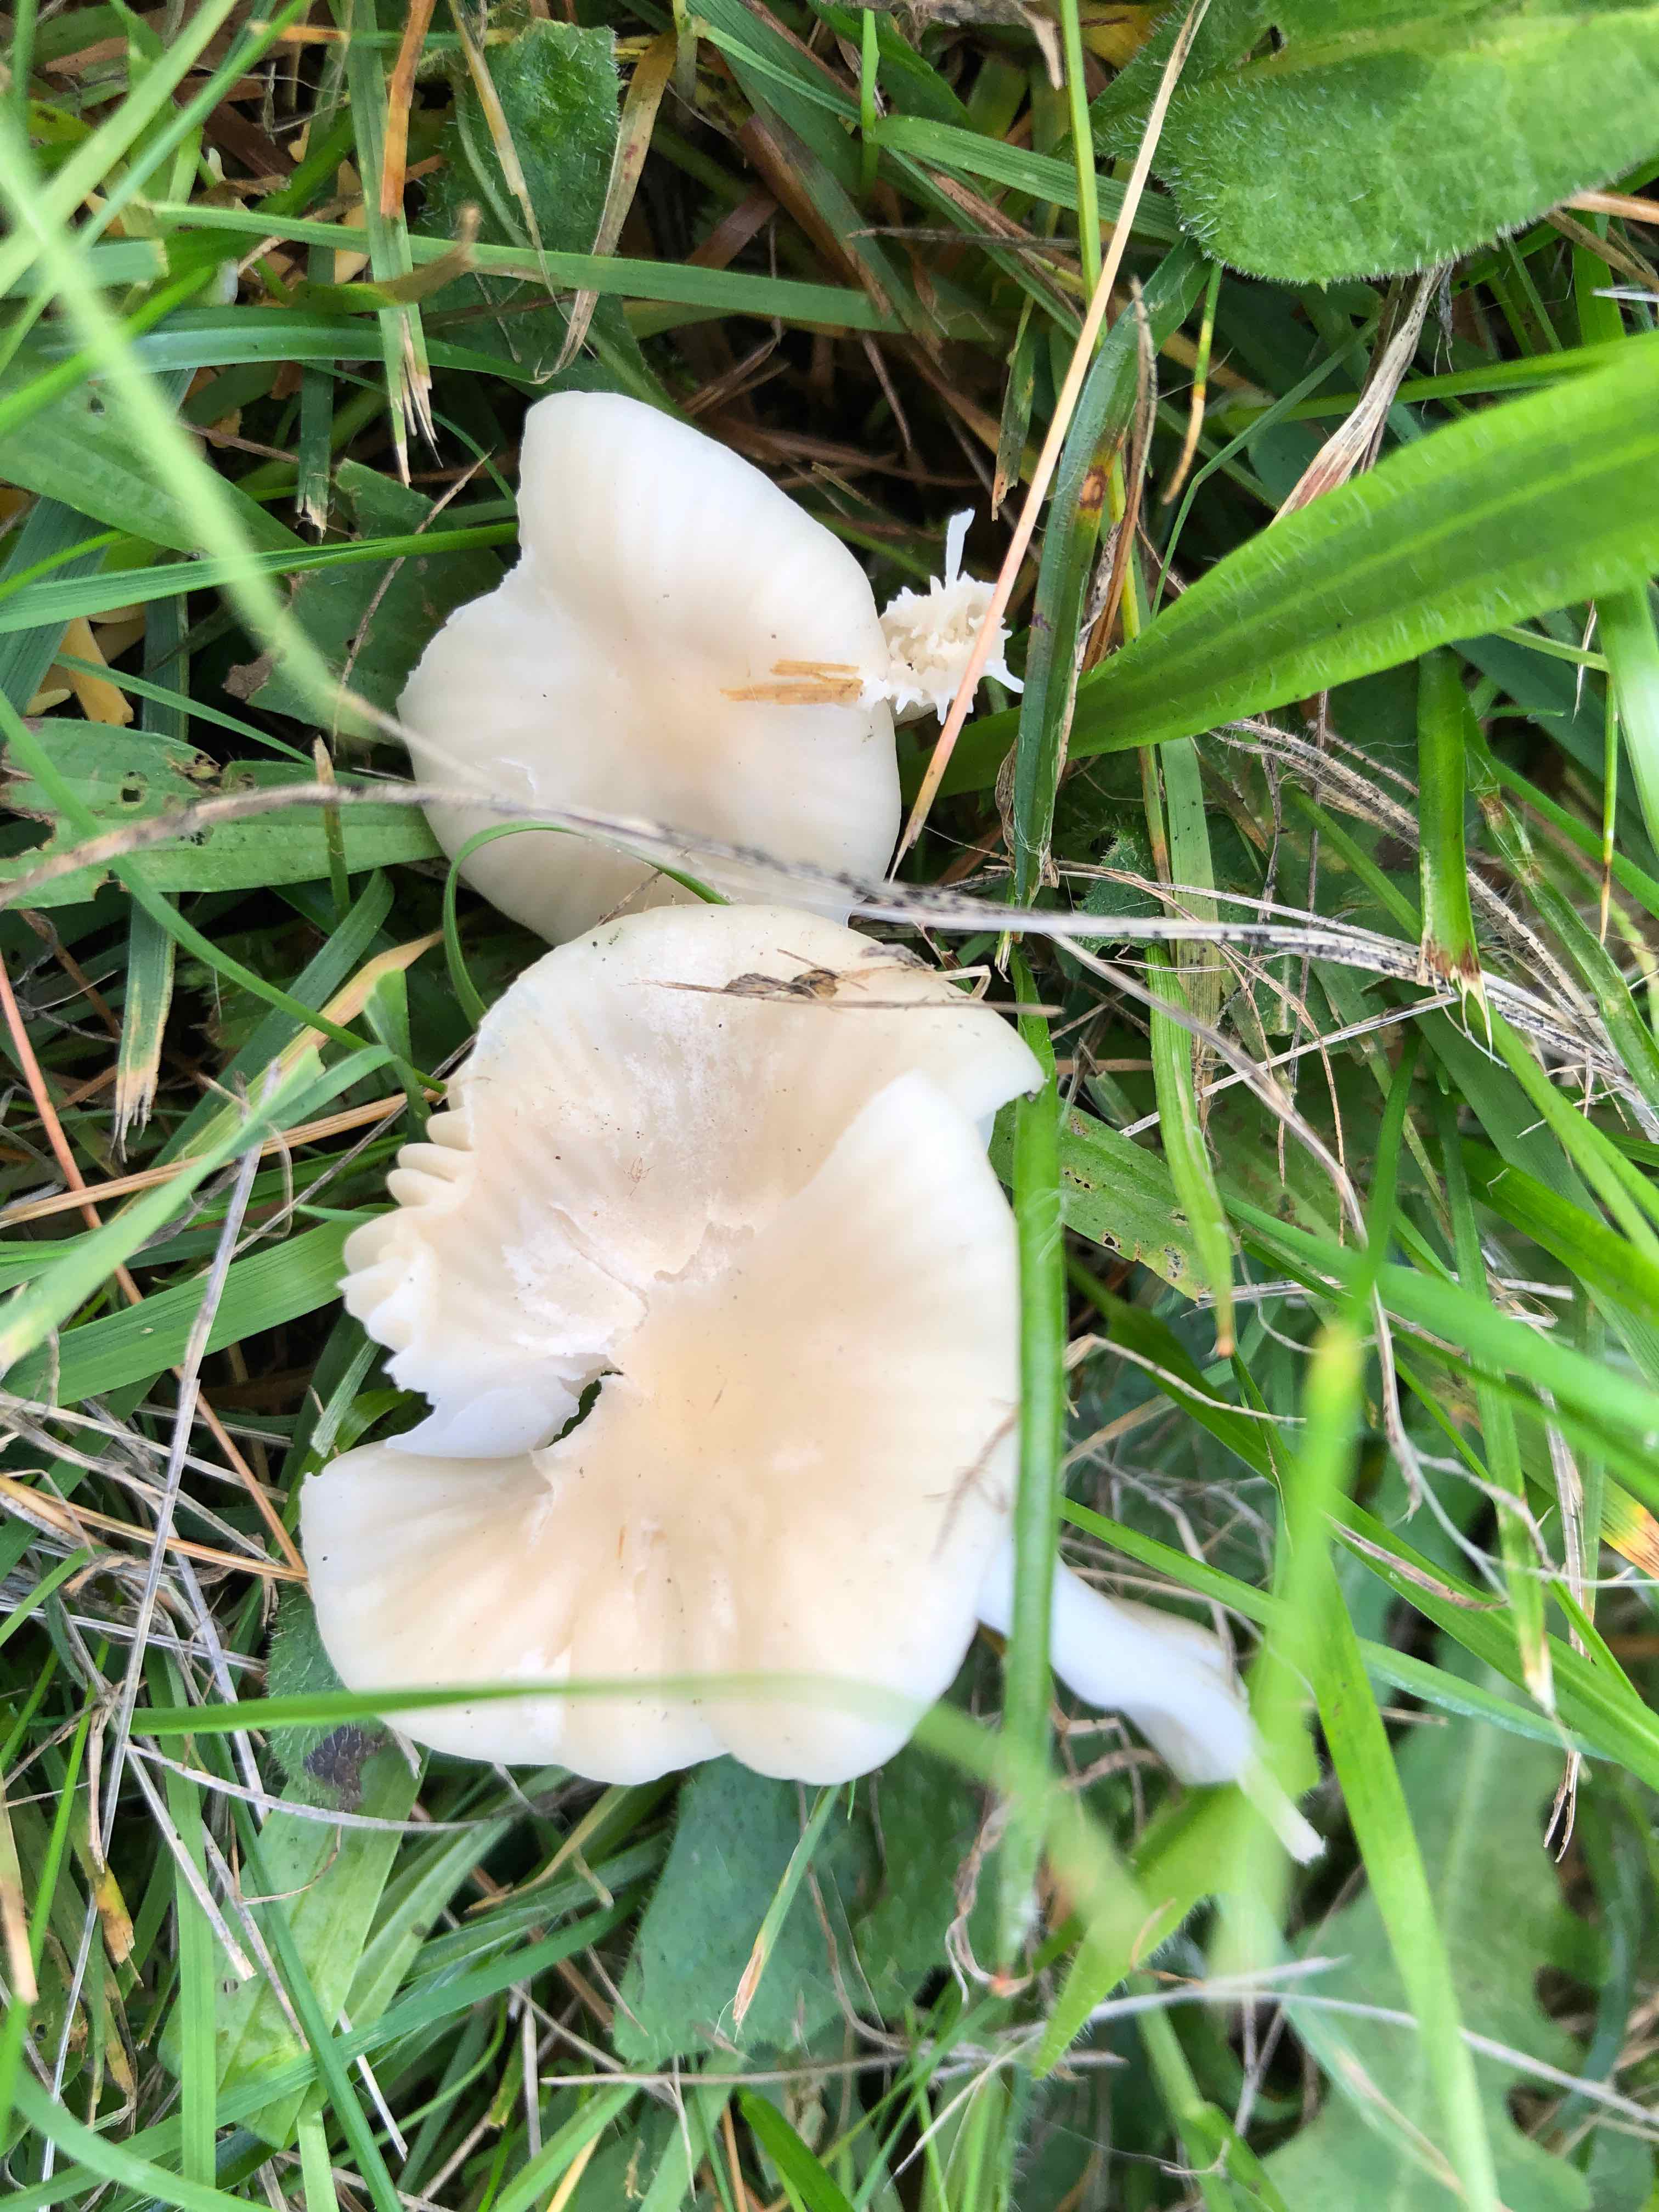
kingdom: Fungi
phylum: Basidiomycota
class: Agaricomycetes
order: Agaricales
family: Hygrophoraceae
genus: Cuphophyllus
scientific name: Cuphophyllus russocoriaceus
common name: ruslæder-vokshat
